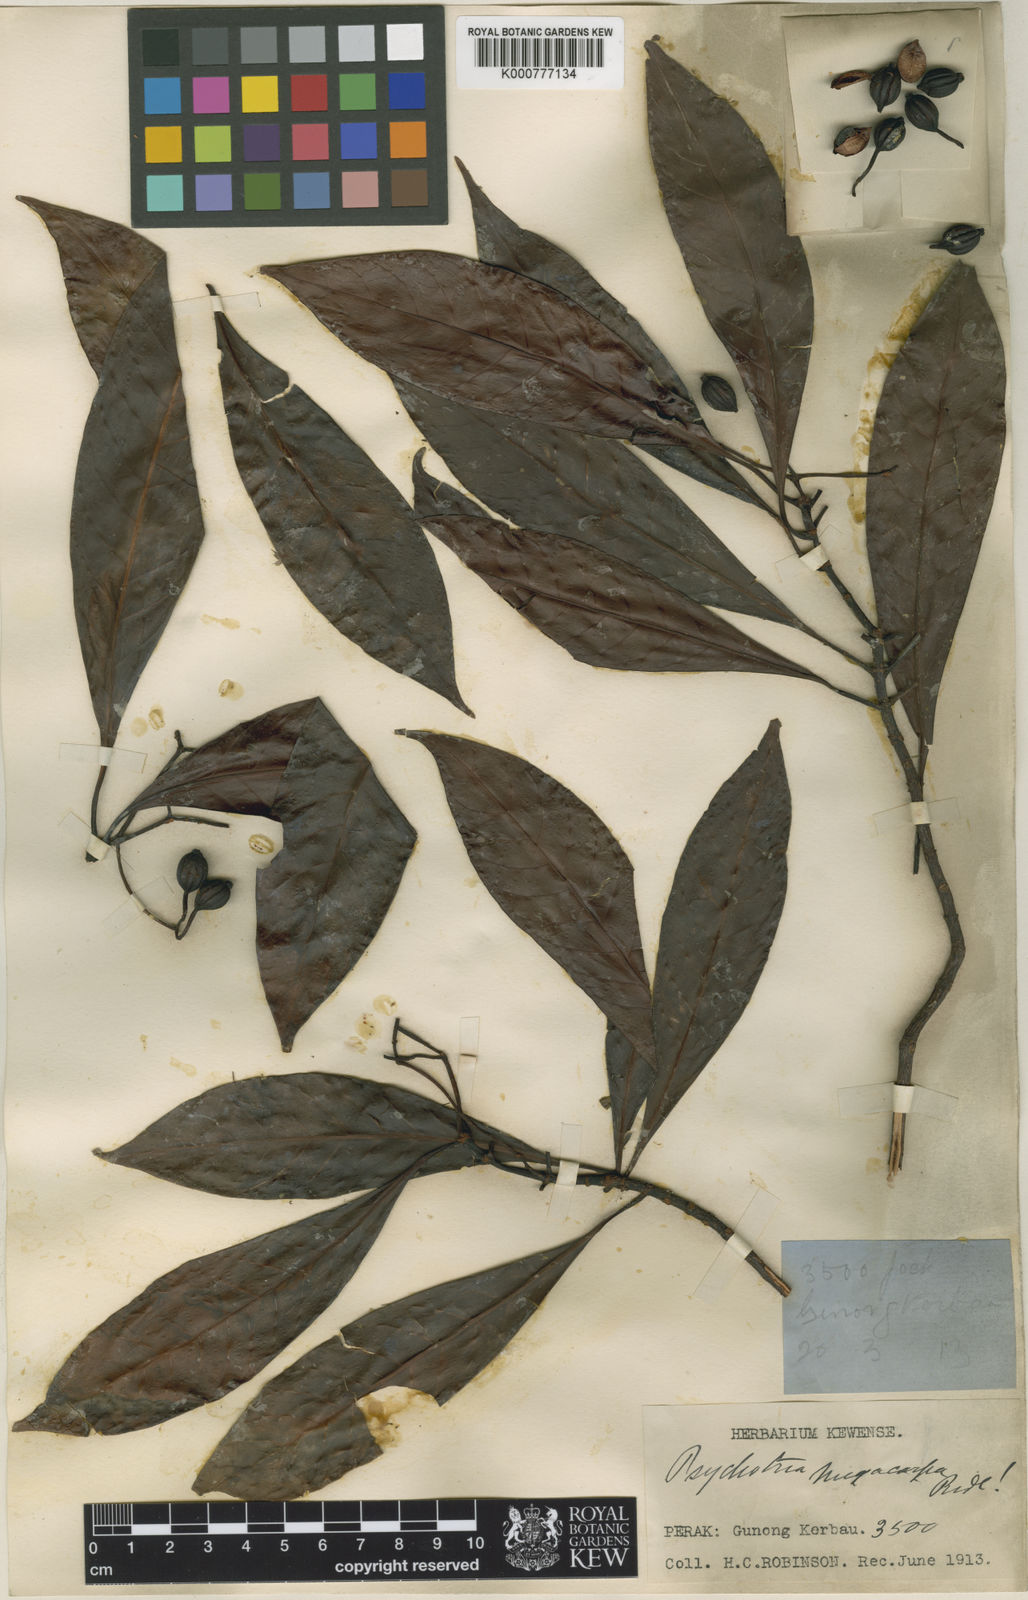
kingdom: Plantae
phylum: Tracheophyta
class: Magnoliopsida
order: Gentianales
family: Rubiaceae
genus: Psychotria
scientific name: Psychotria megacarpa
